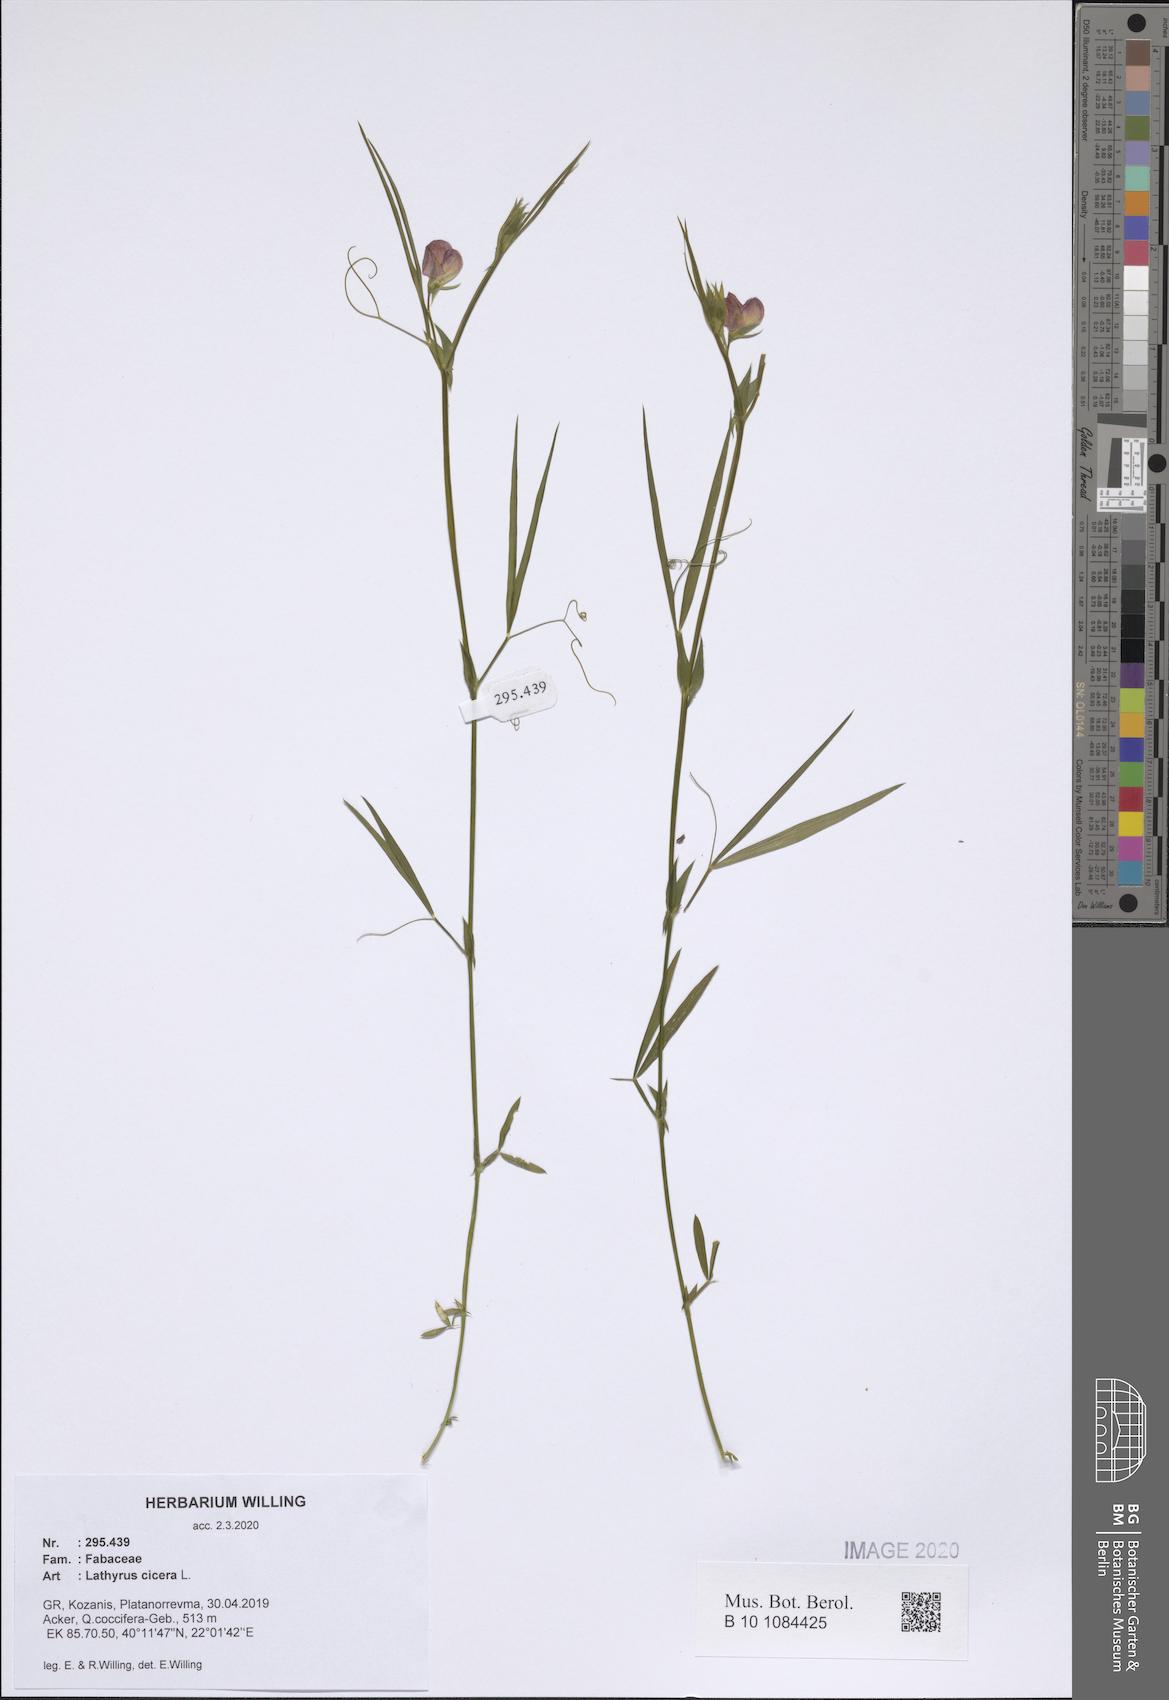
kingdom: Plantae
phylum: Tracheophyta
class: Magnoliopsida
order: Fabales
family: Fabaceae
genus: Lathyrus
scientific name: Lathyrus cicera
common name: Red vetchling
